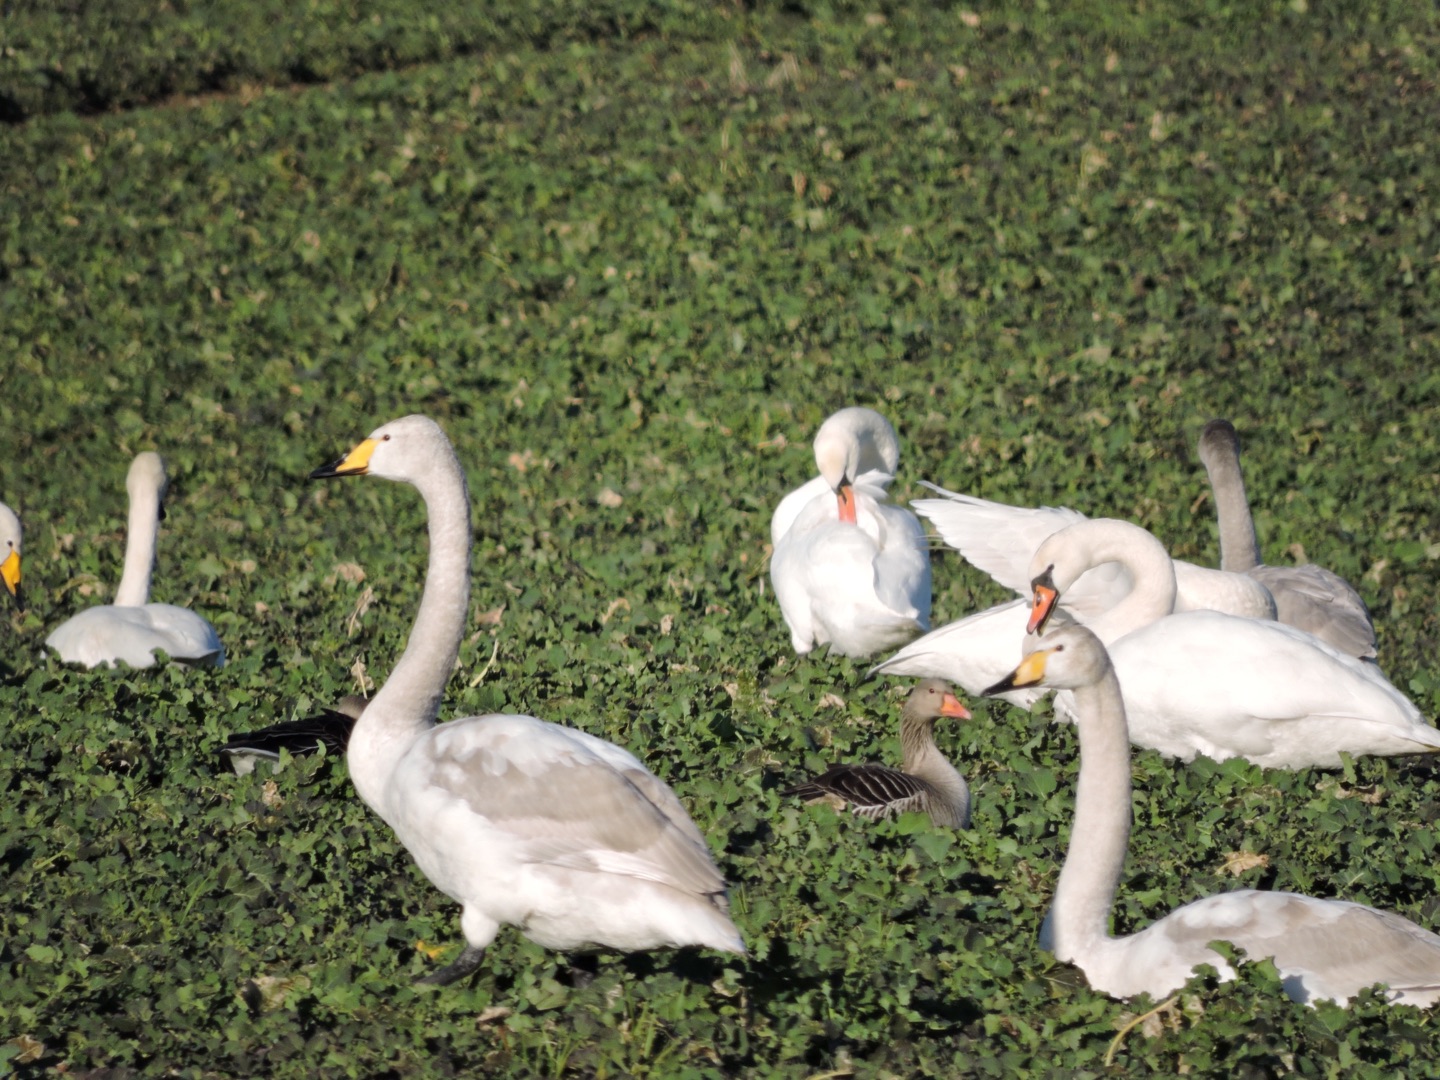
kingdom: Animalia
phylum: Chordata
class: Aves
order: Anseriformes
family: Anatidae
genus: Cygnus
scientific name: Cygnus cygnus
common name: Sangsvane
